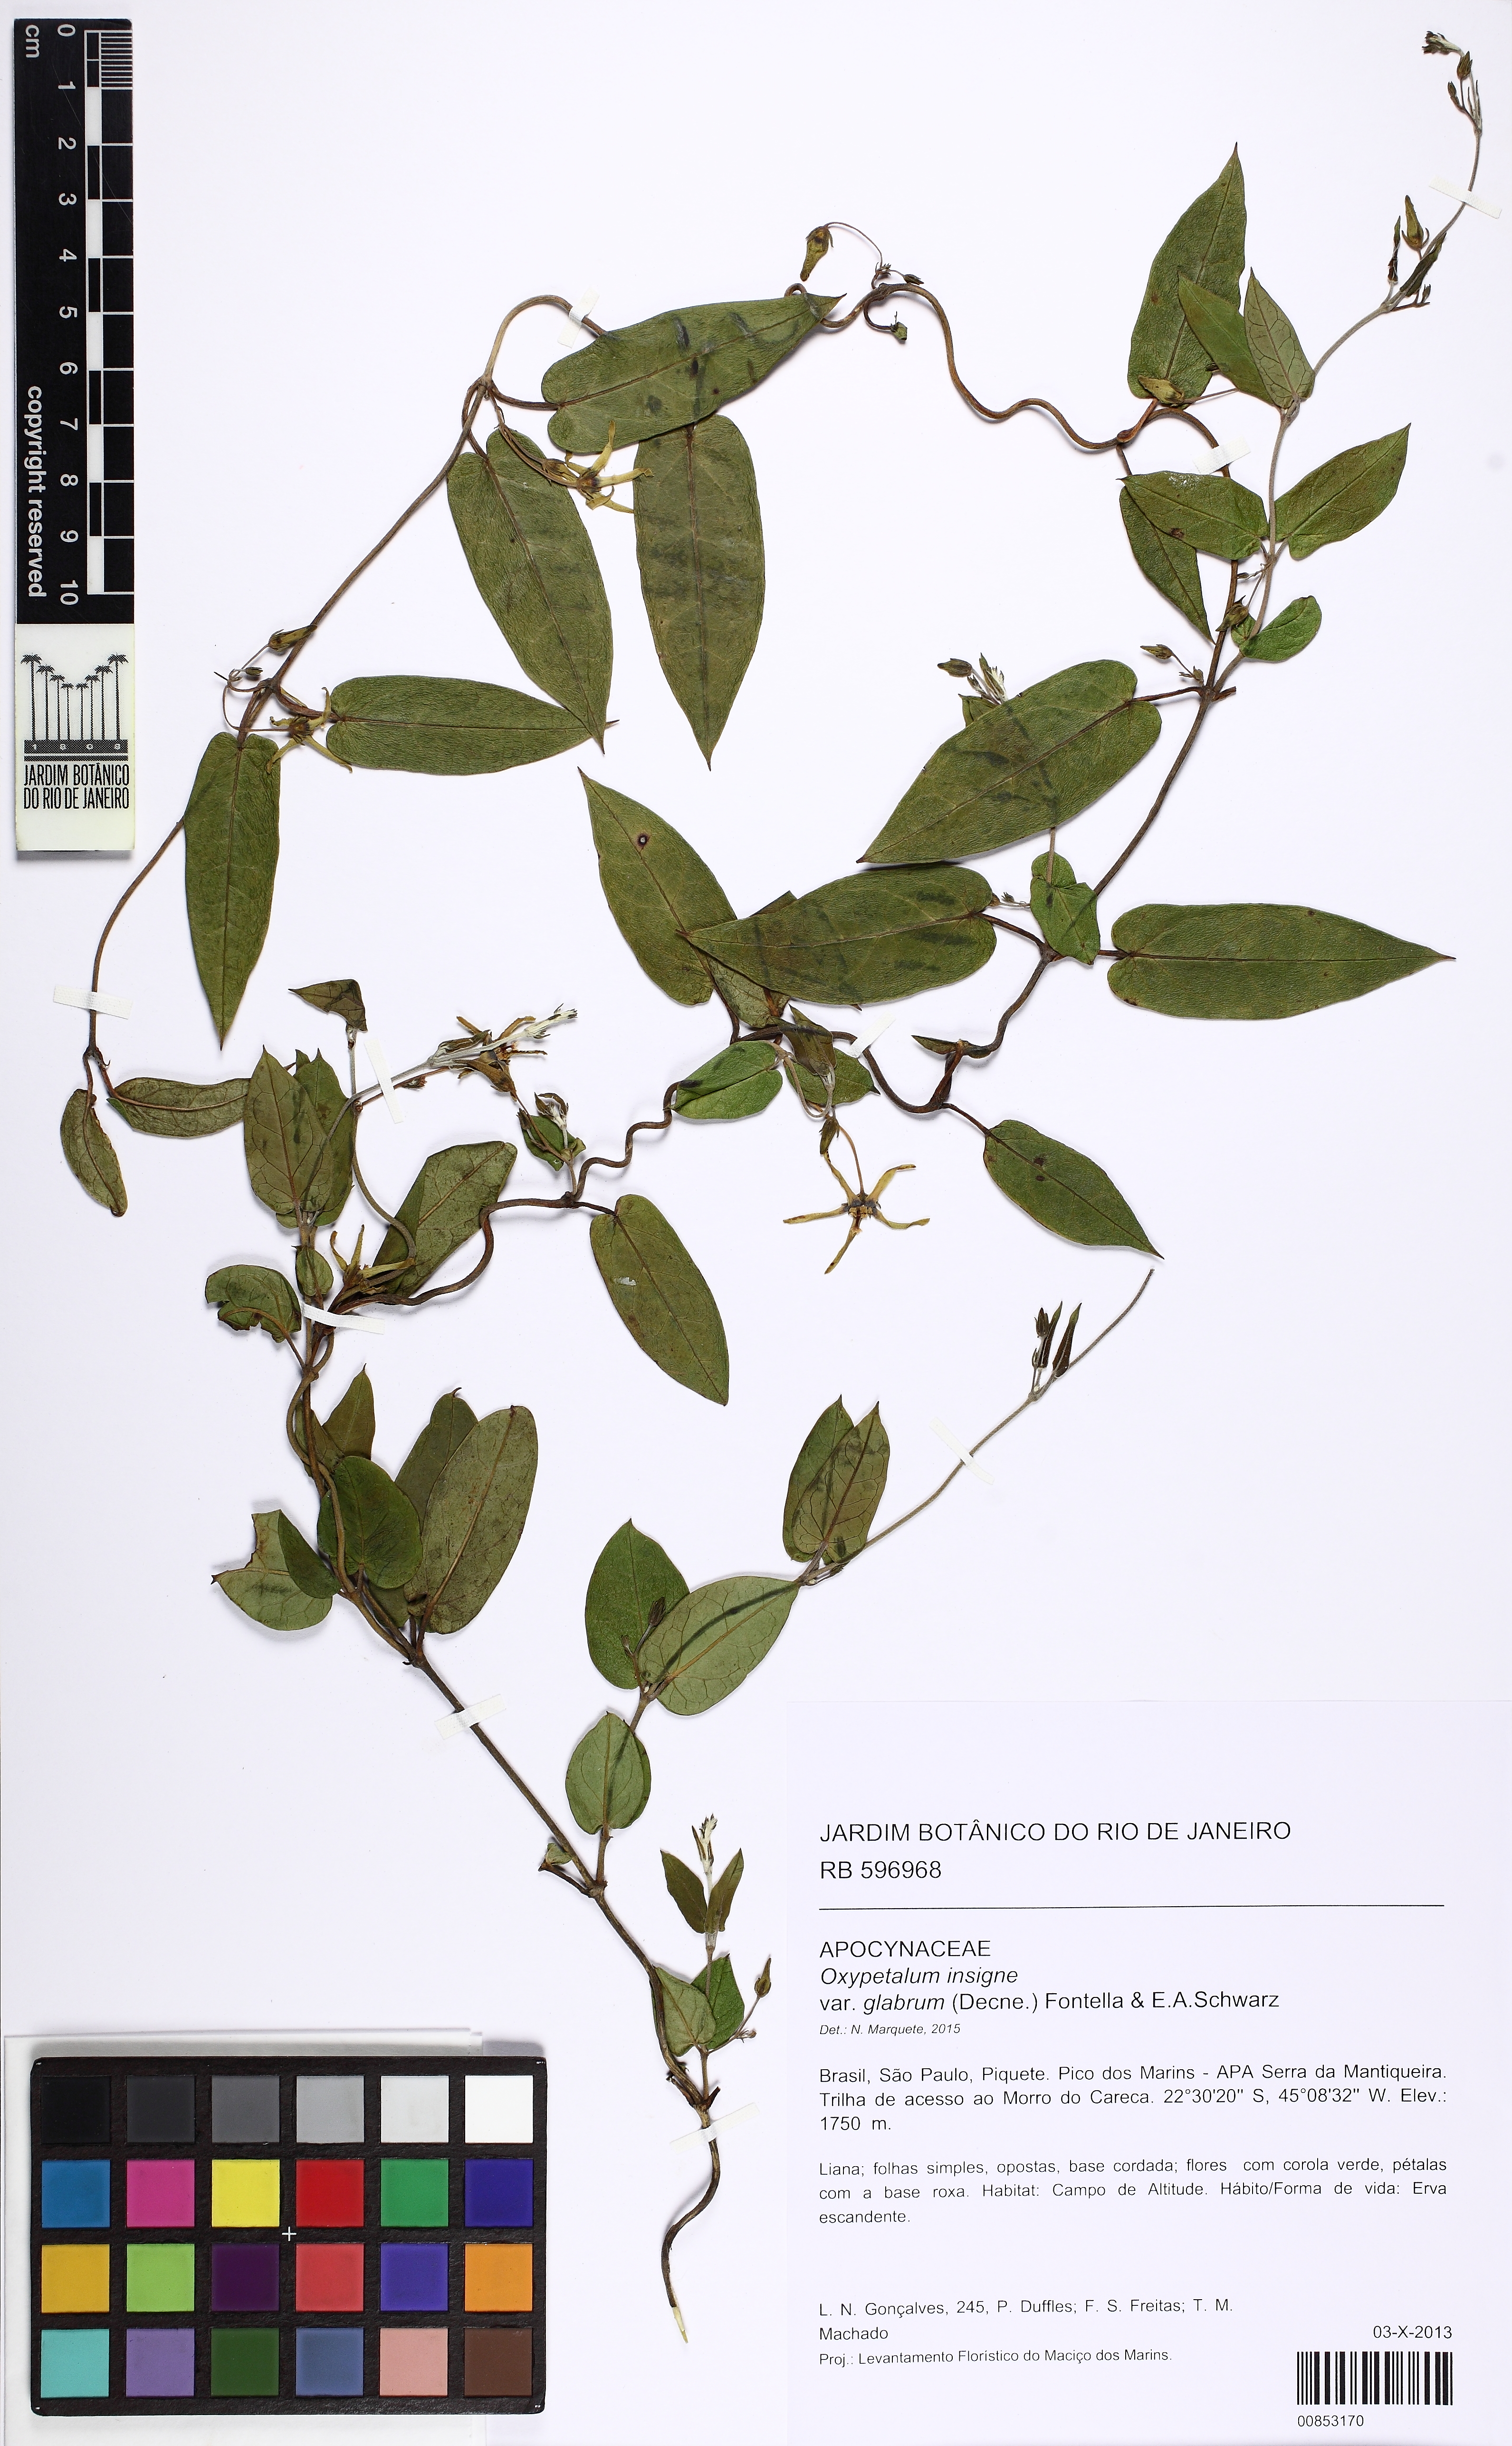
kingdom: Plantae
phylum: Tracheophyta
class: Magnoliopsida
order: Gentianales
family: Apocynaceae
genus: Oxypetalum
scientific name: Oxypetalum insigne
